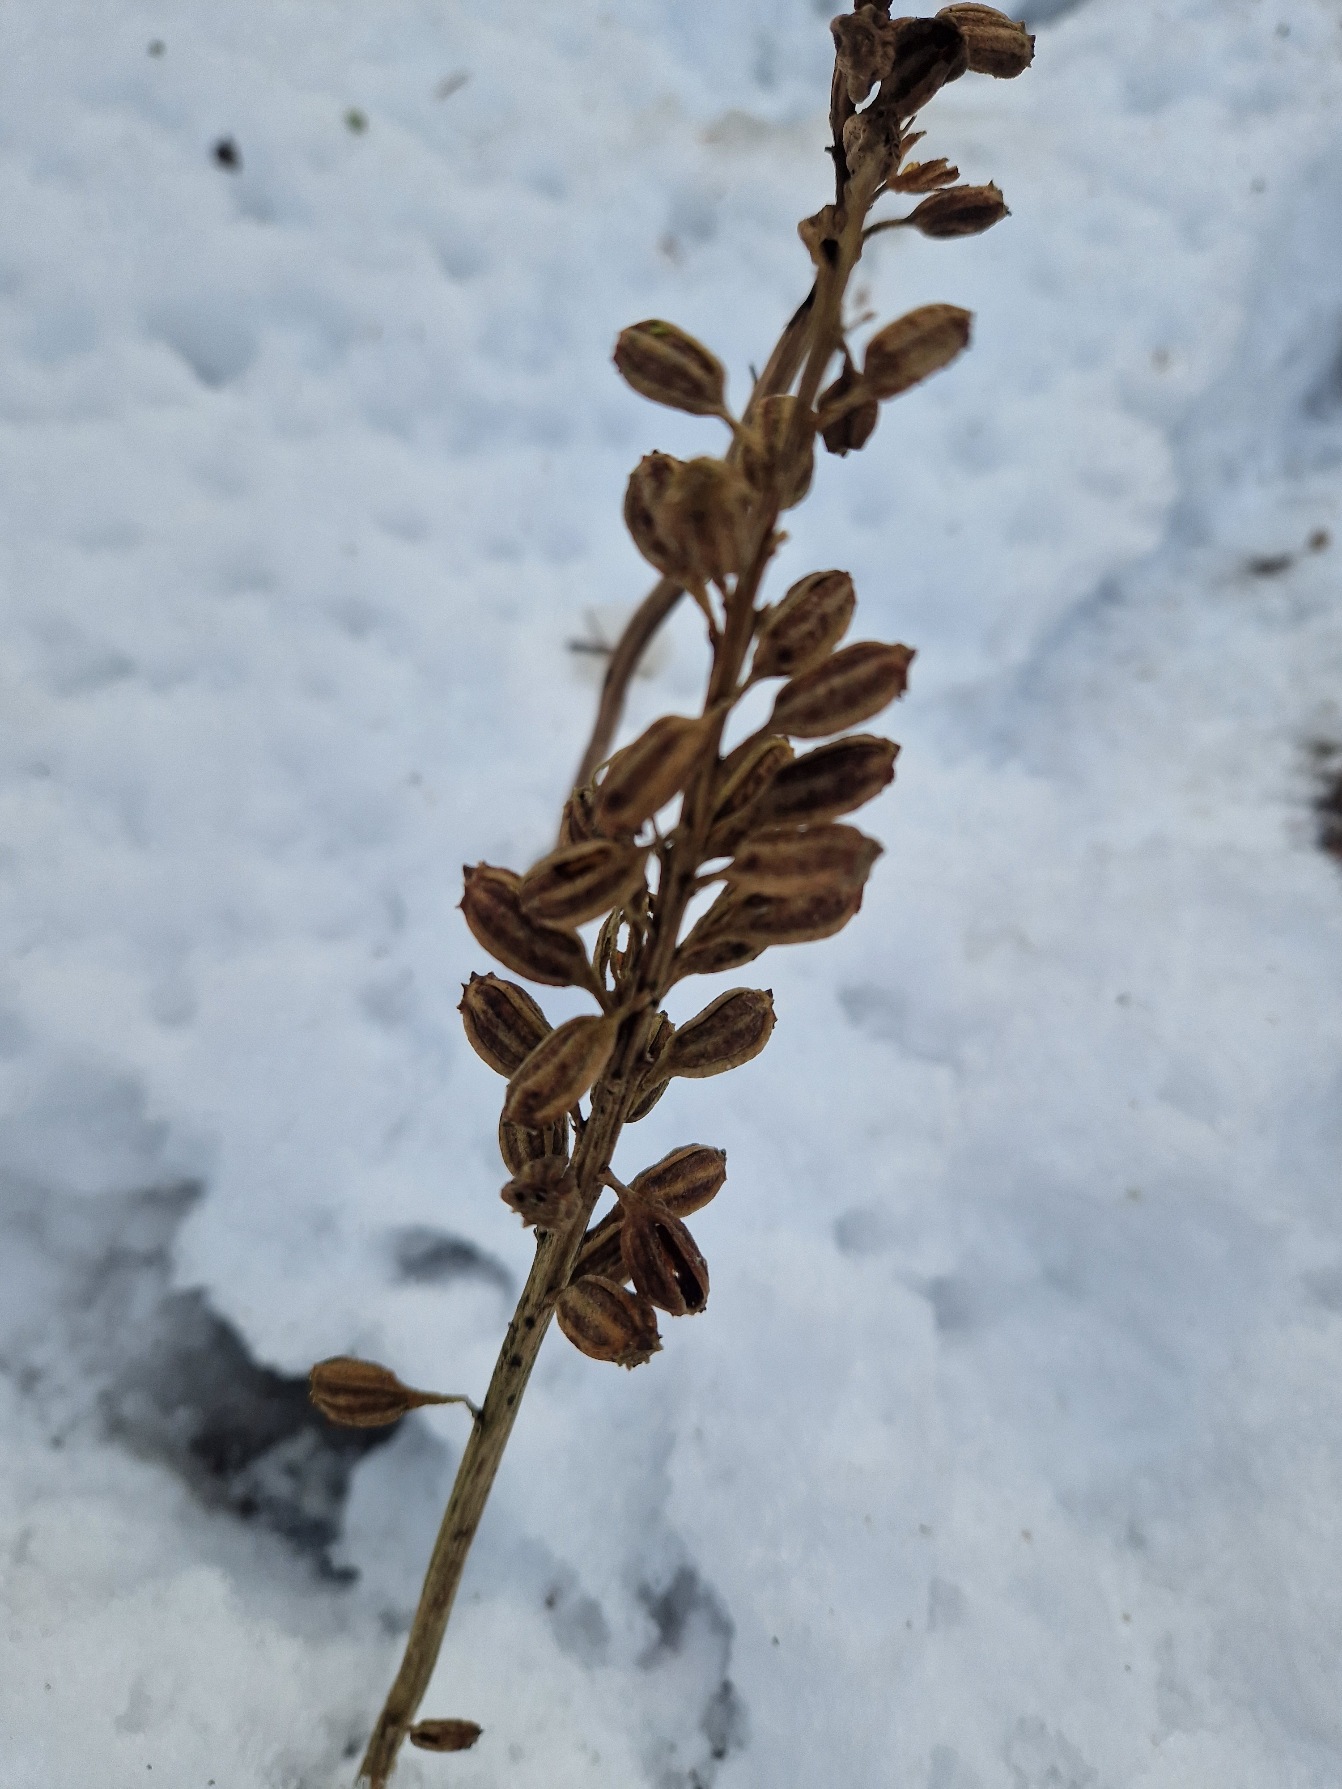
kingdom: Plantae
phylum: Tracheophyta
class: Liliopsida
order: Asparagales
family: Orchidaceae
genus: Neottia
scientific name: Neottia nidus-avis
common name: Rederod
